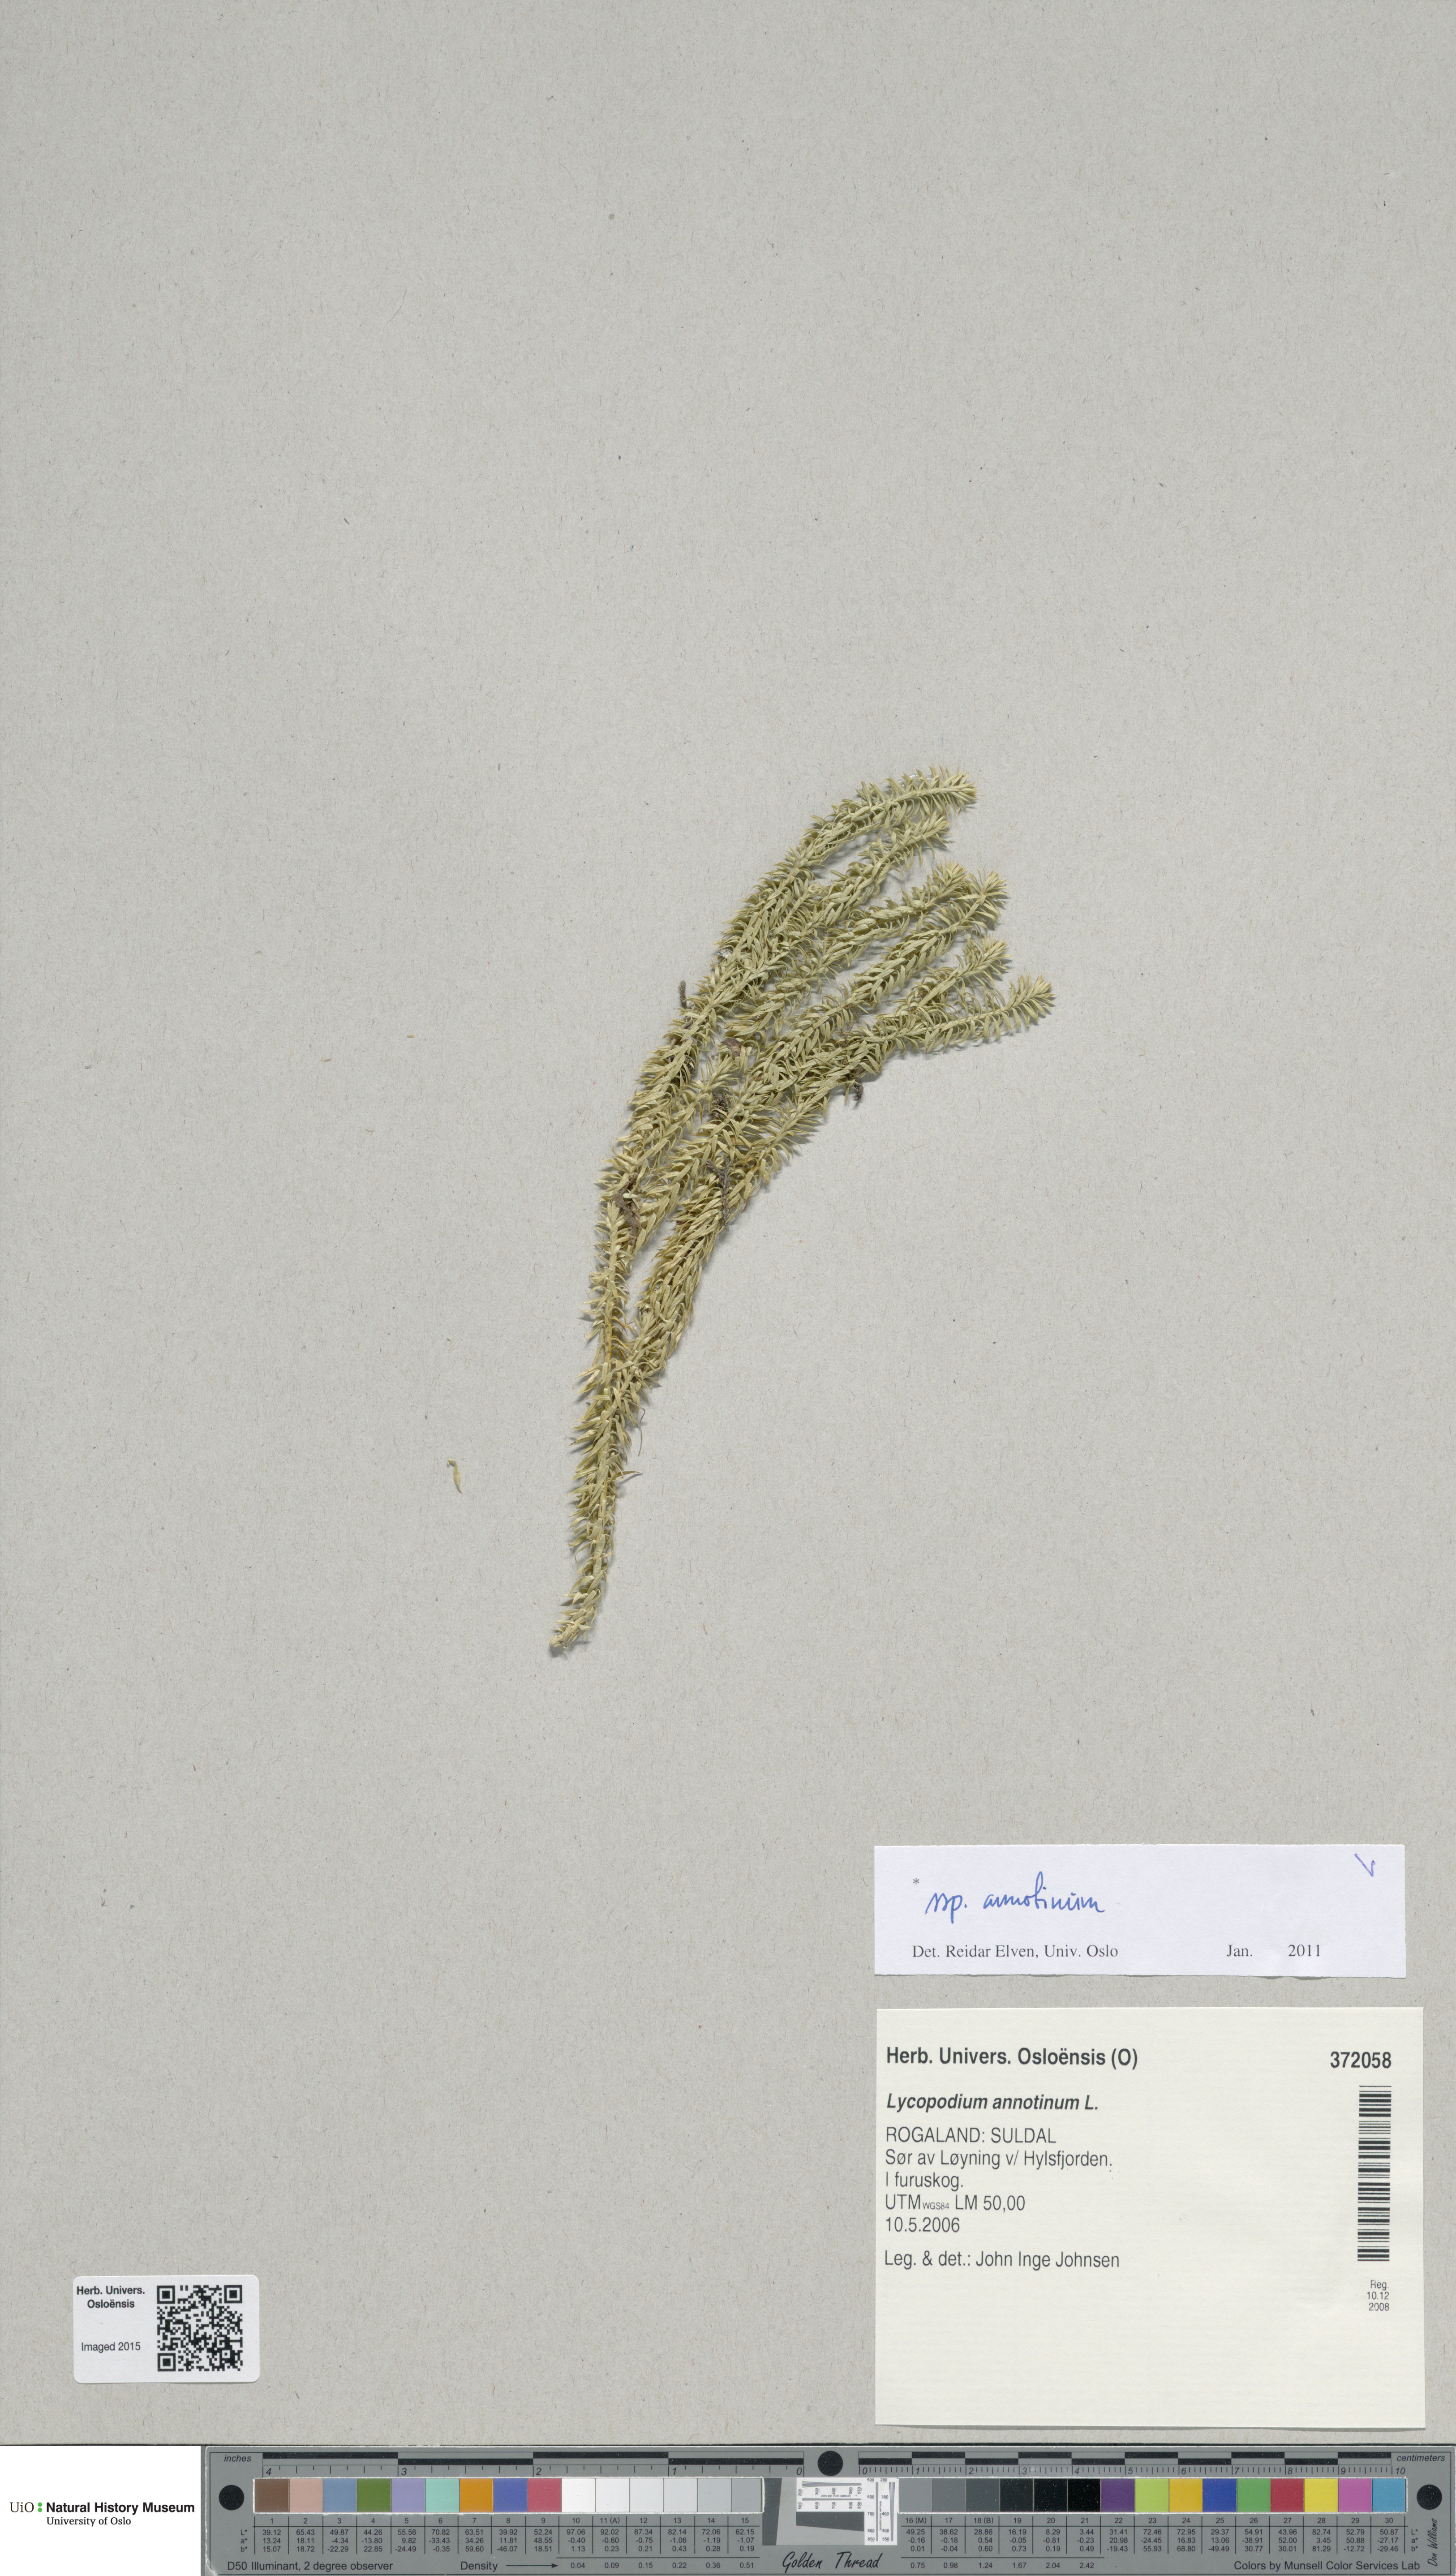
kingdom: Plantae
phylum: Tracheophyta
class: Lycopodiopsida
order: Lycopodiales
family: Lycopodiaceae
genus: Spinulum
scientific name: Spinulum annotinum
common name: Interrupted club-moss
